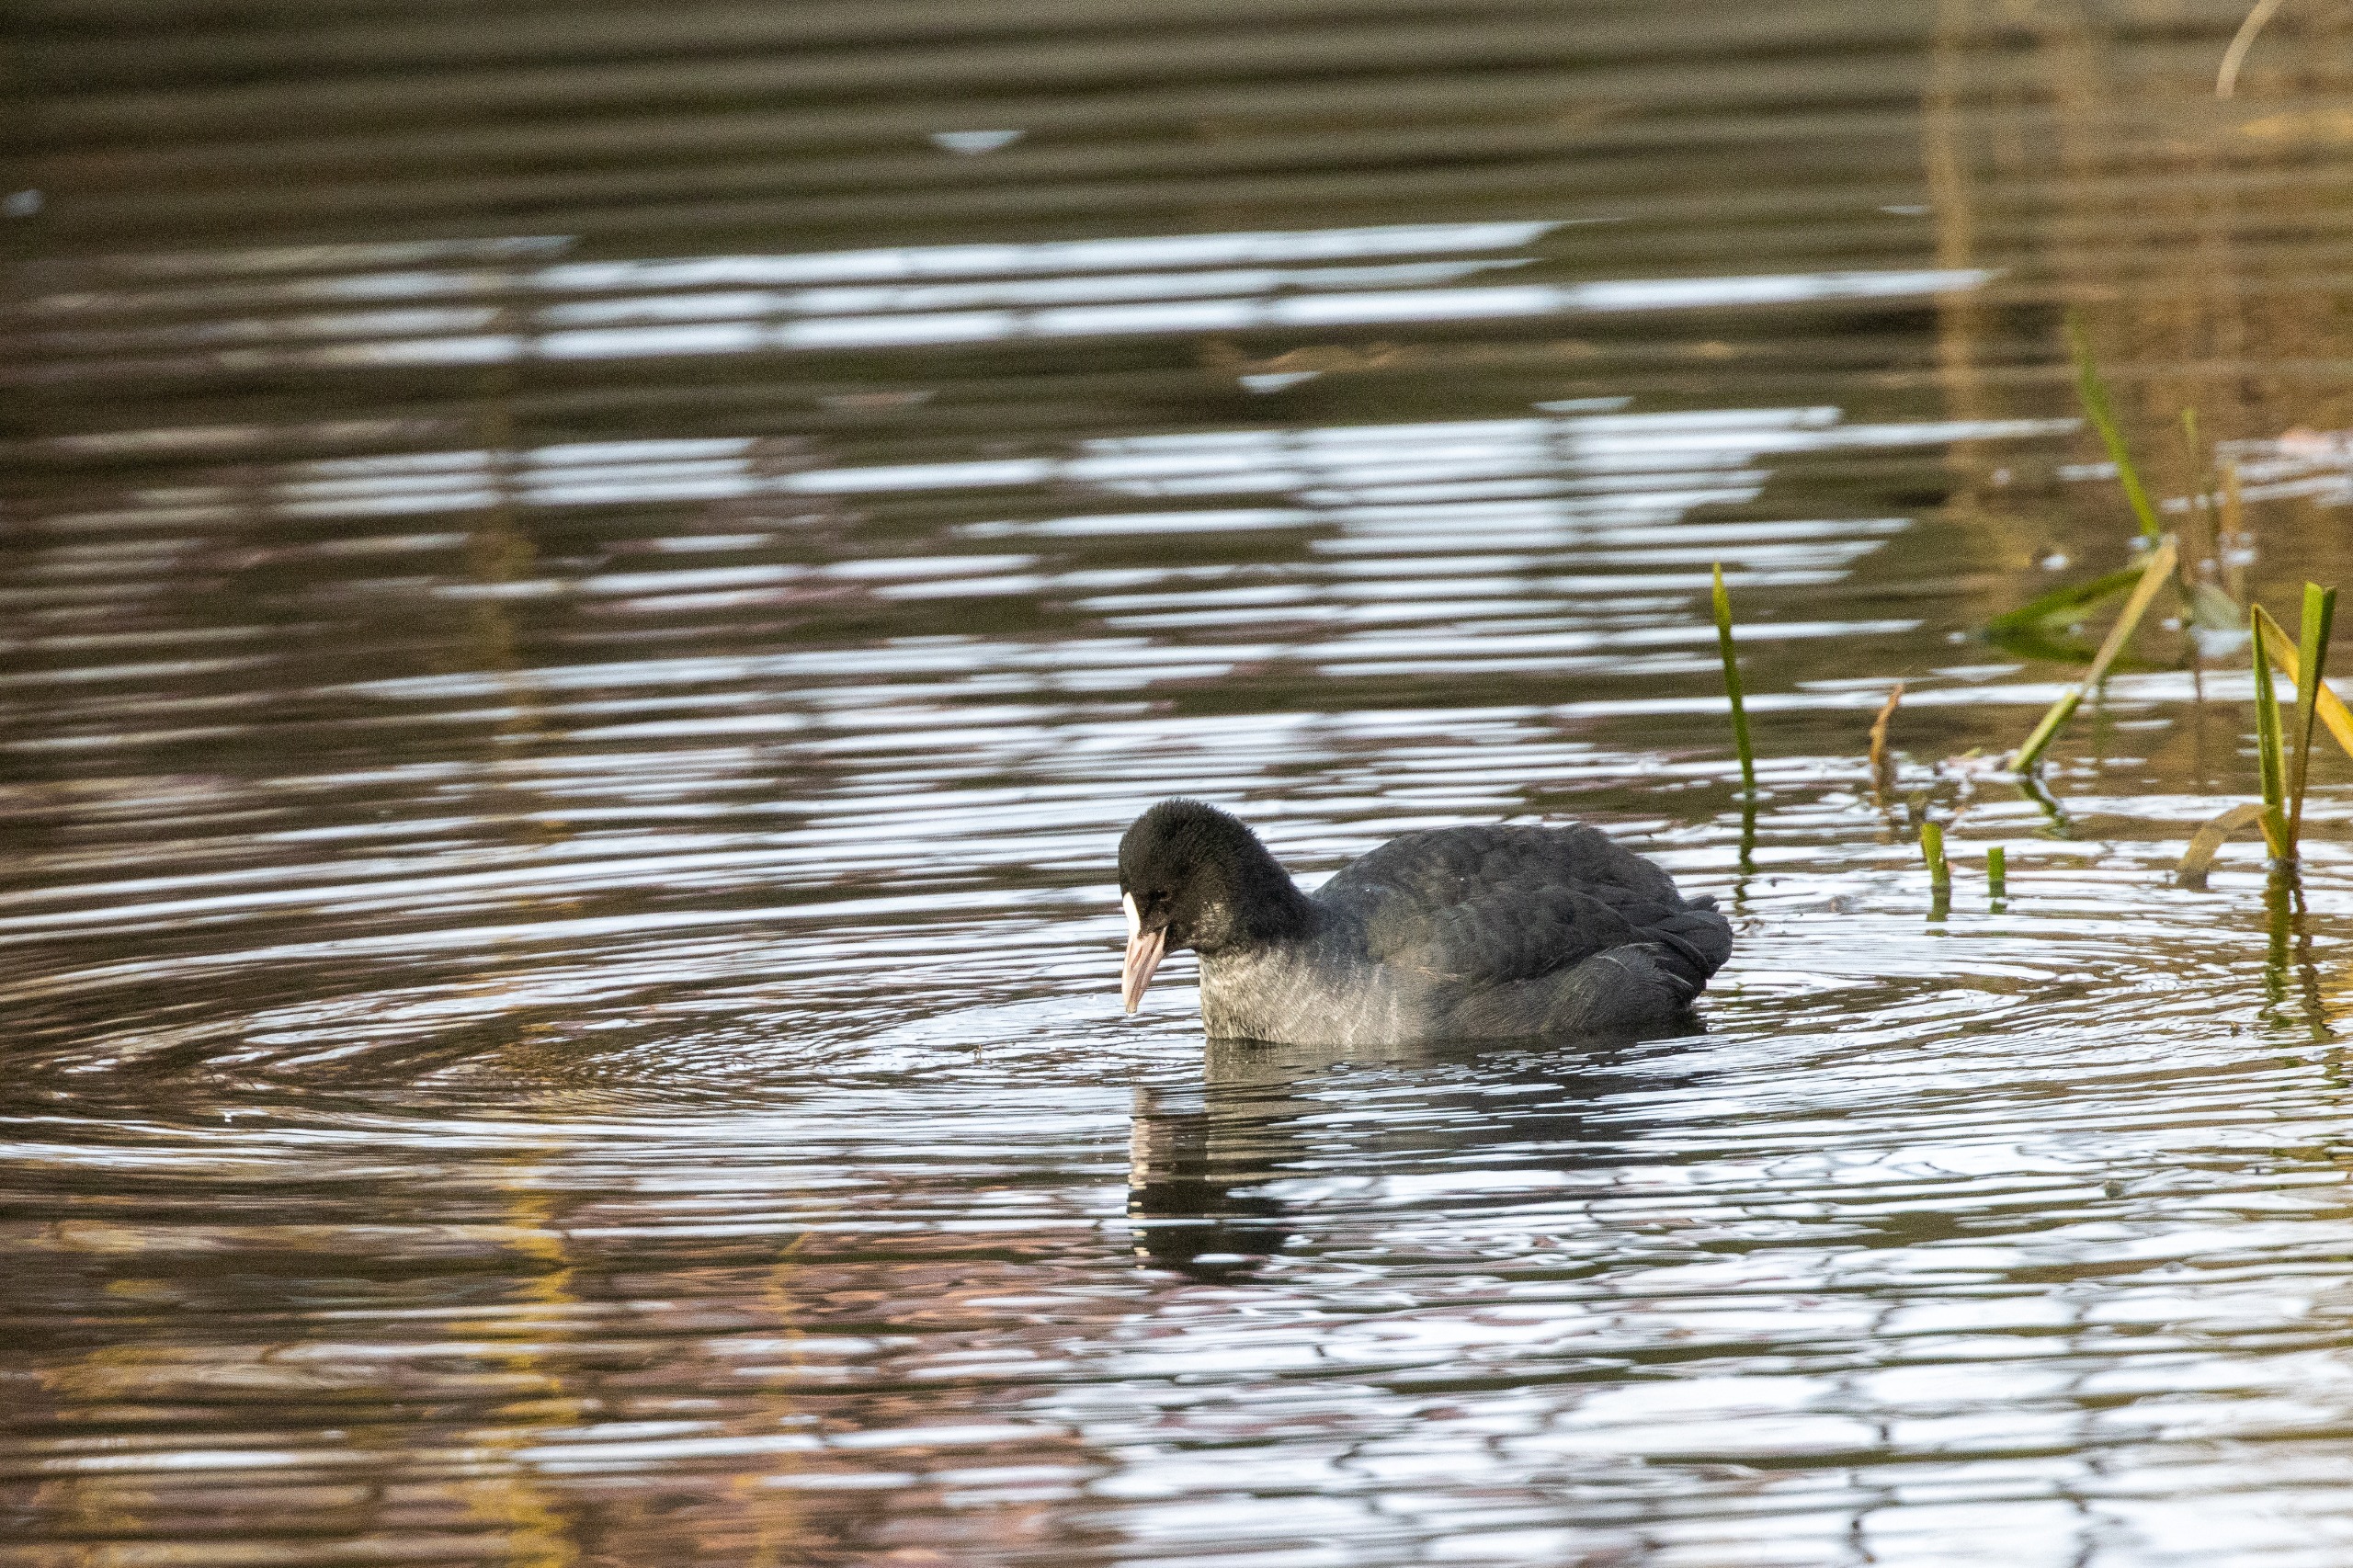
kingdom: Animalia
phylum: Chordata
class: Aves
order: Gruiformes
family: Rallidae
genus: Fulica
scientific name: Fulica atra
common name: Blishøne
